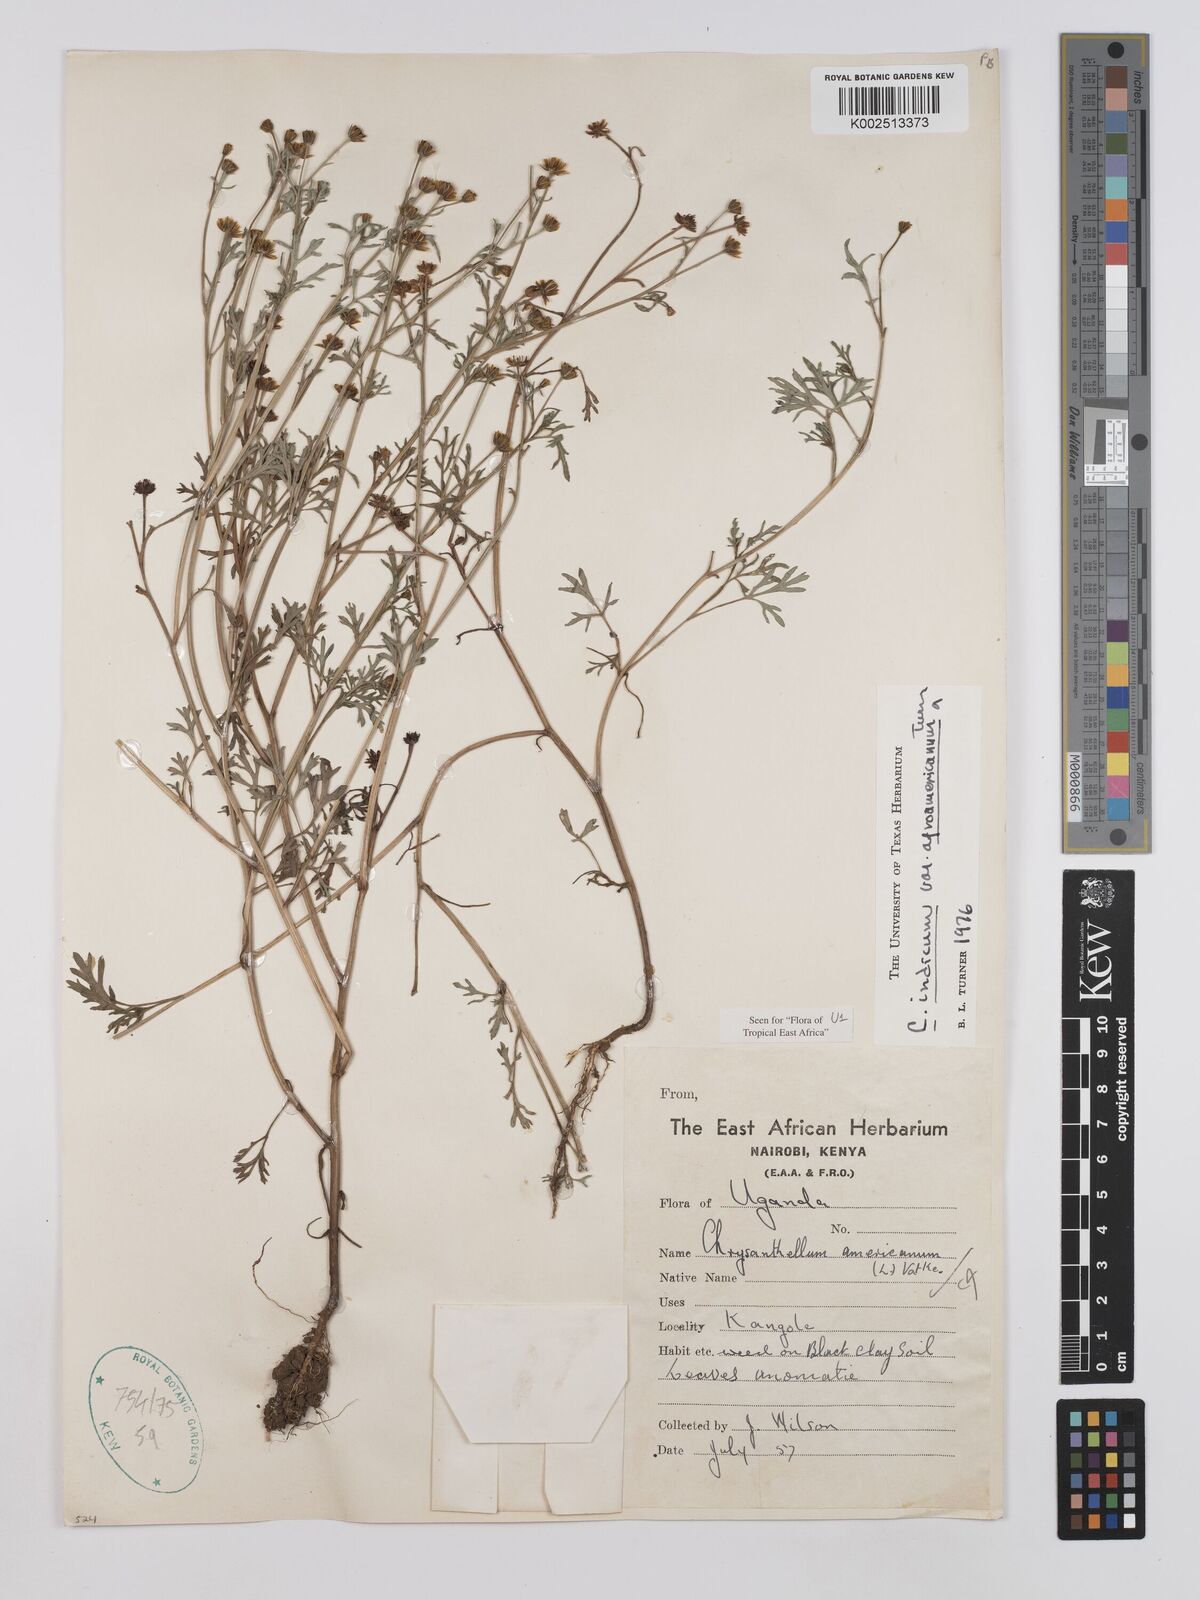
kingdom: Plantae
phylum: Tracheophyta
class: Magnoliopsida
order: Asterales
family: Asteraceae
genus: Chrysanthellum
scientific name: Chrysanthellum indicum
